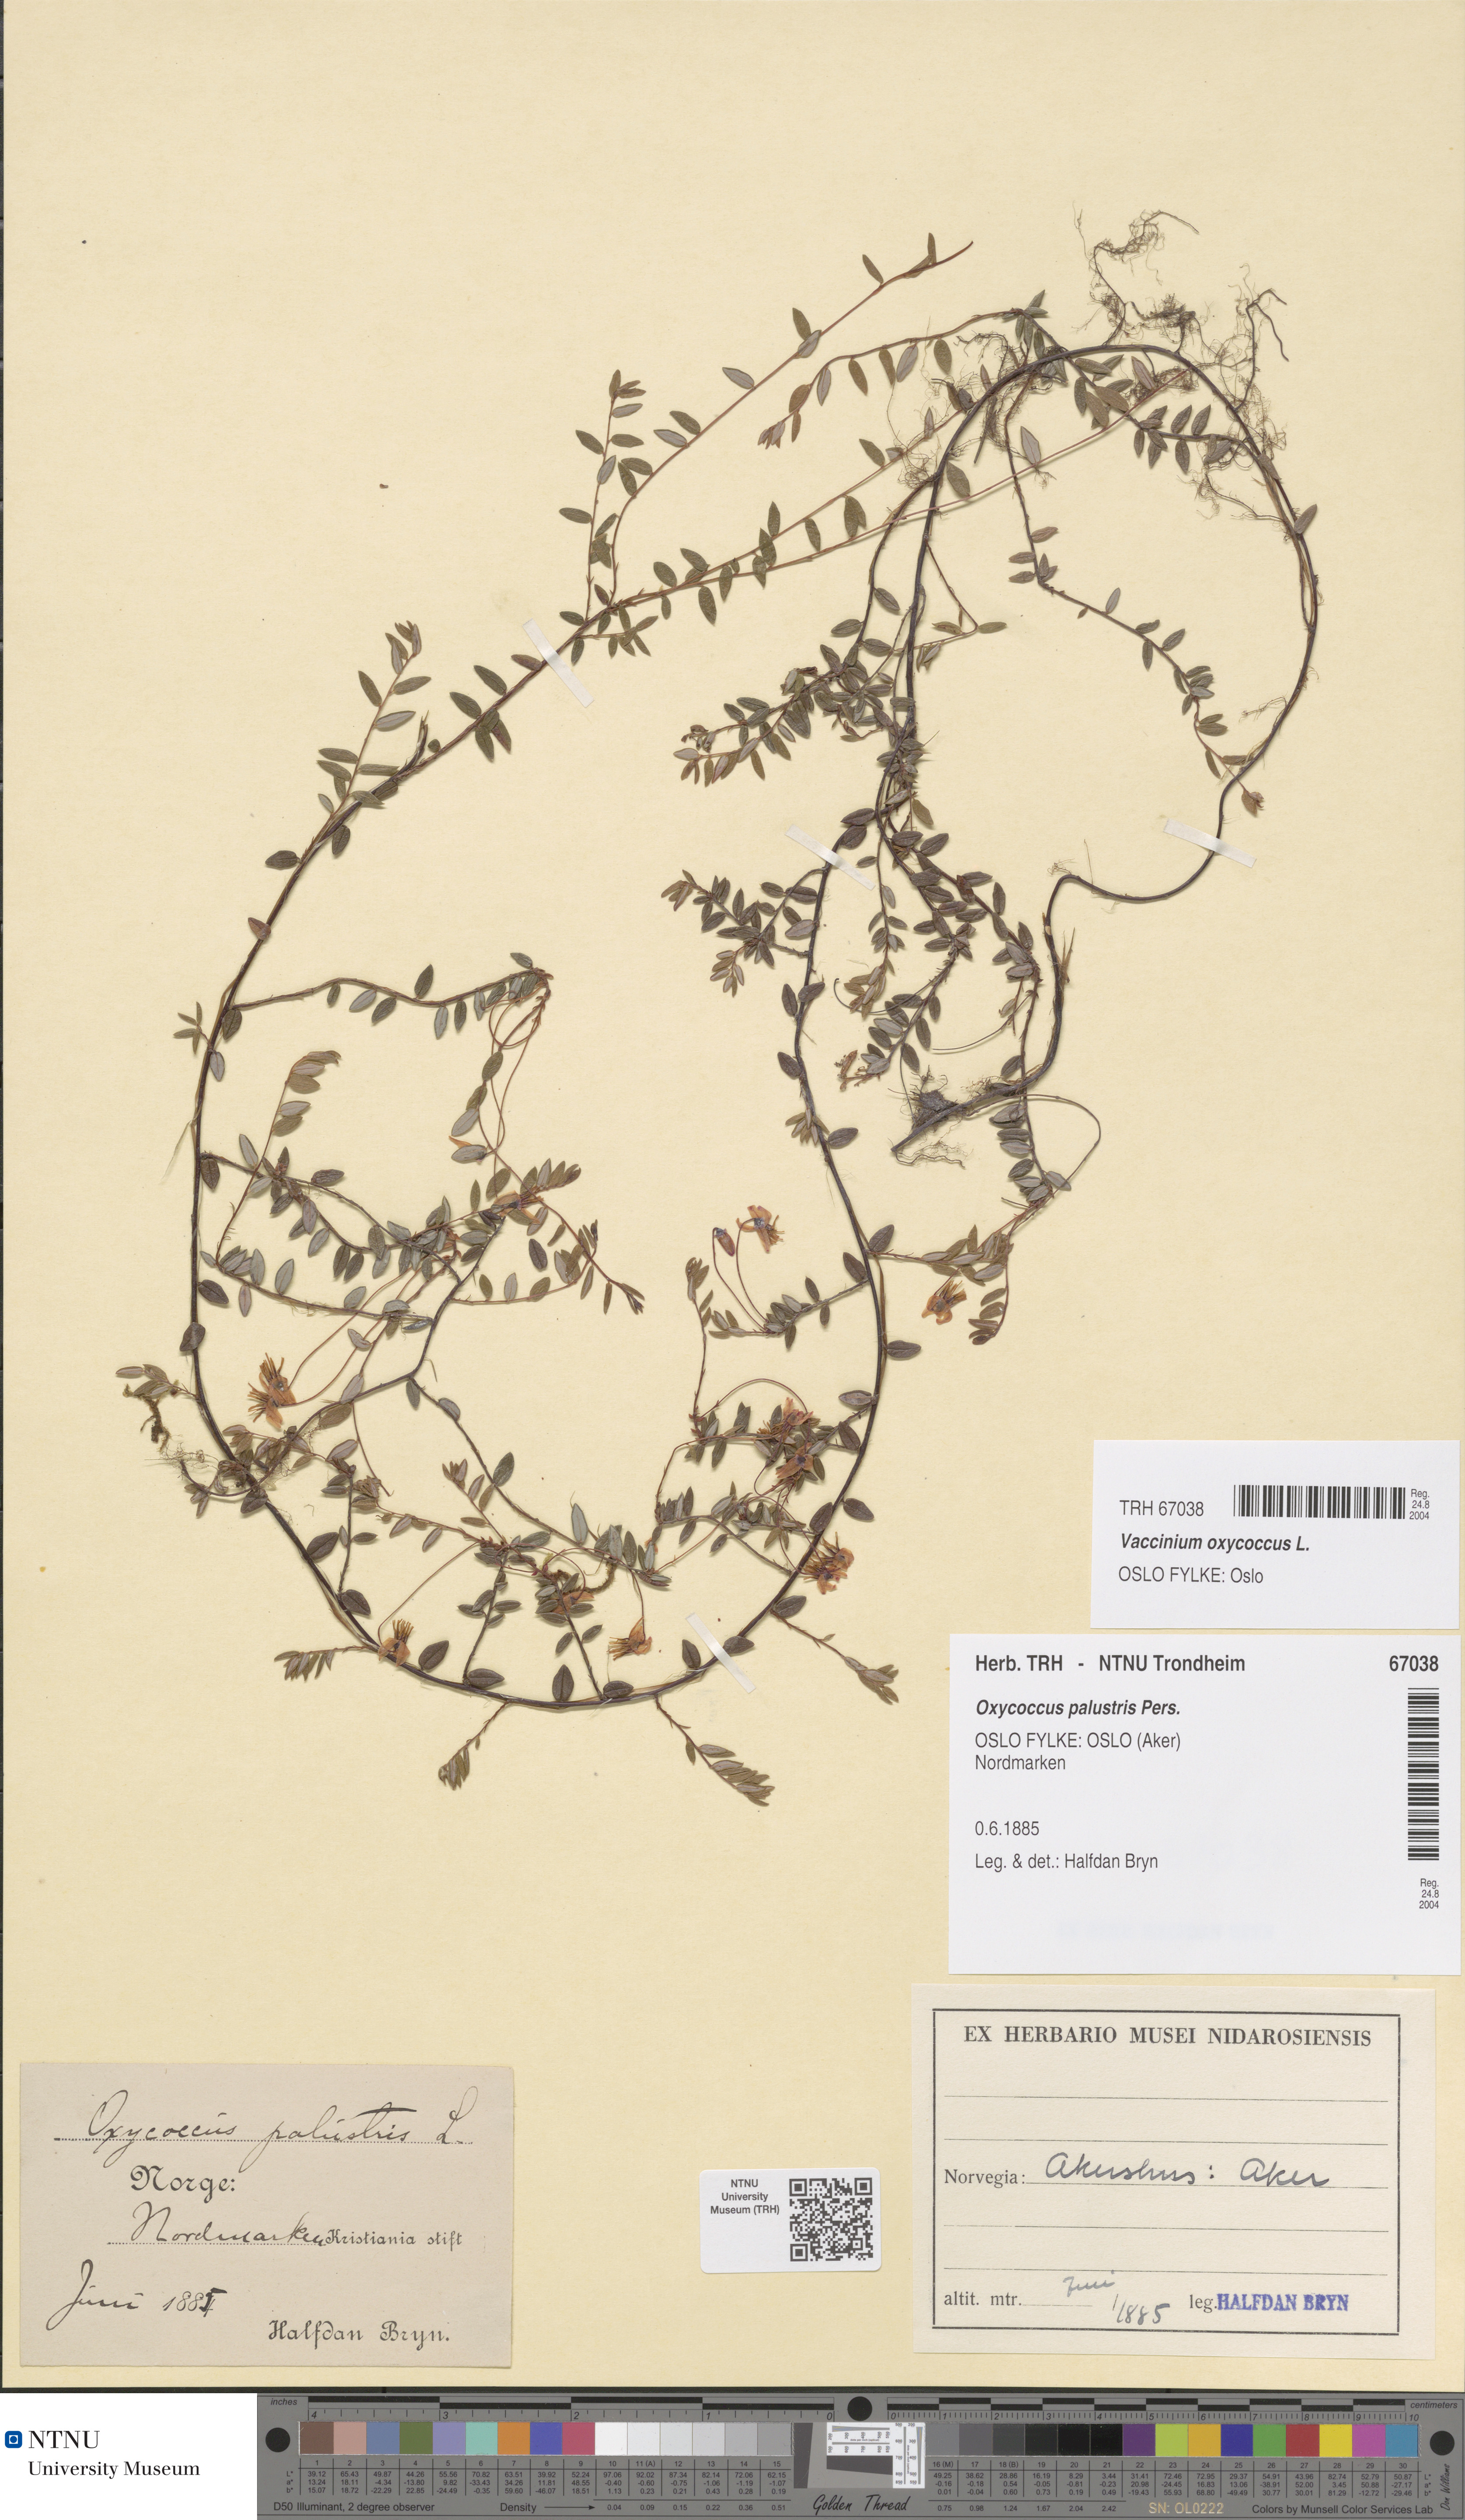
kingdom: Plantae
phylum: Tracheophyta
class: Magnoliopsida
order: Ericales
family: Ericaceae
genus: Vaccinium
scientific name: Vaccinium oxycoccos
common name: Cranberry
